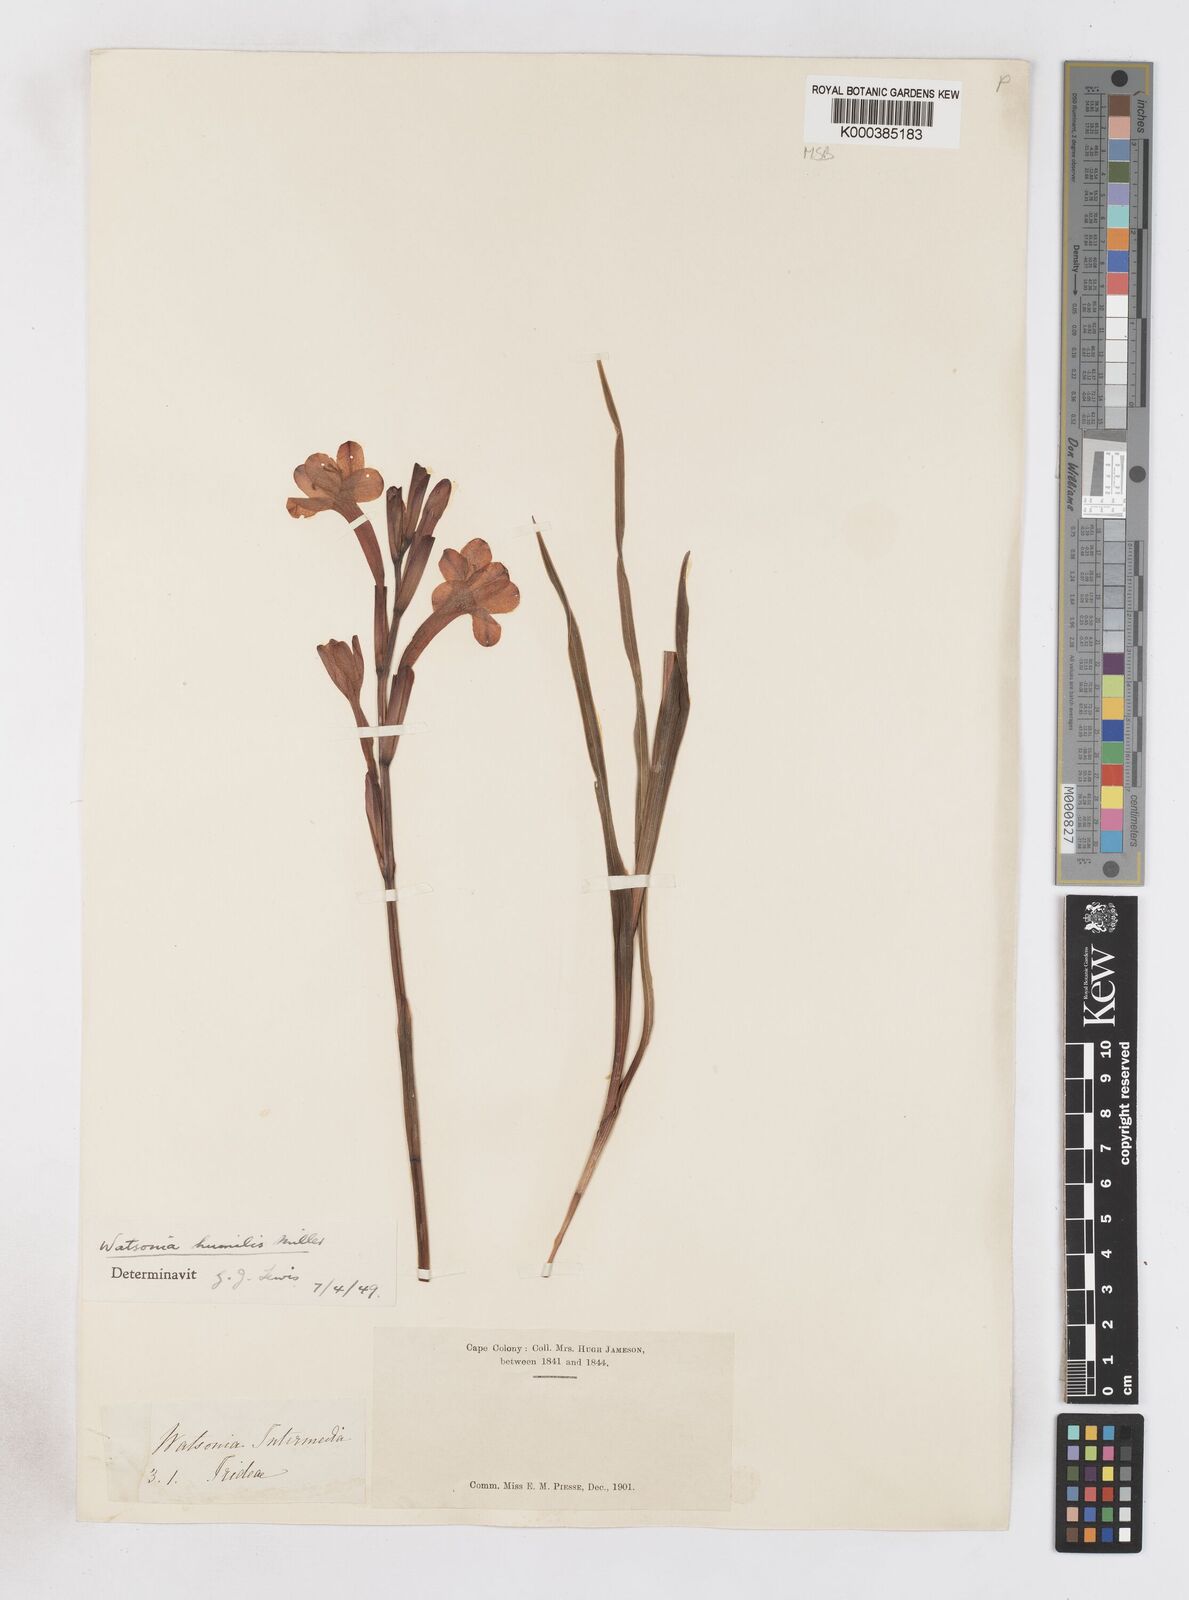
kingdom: Plantae
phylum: Tracheophyta
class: Liliopsida
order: Asparagales
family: Iridaceae
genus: Watsonia
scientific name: Watsonia humilis
